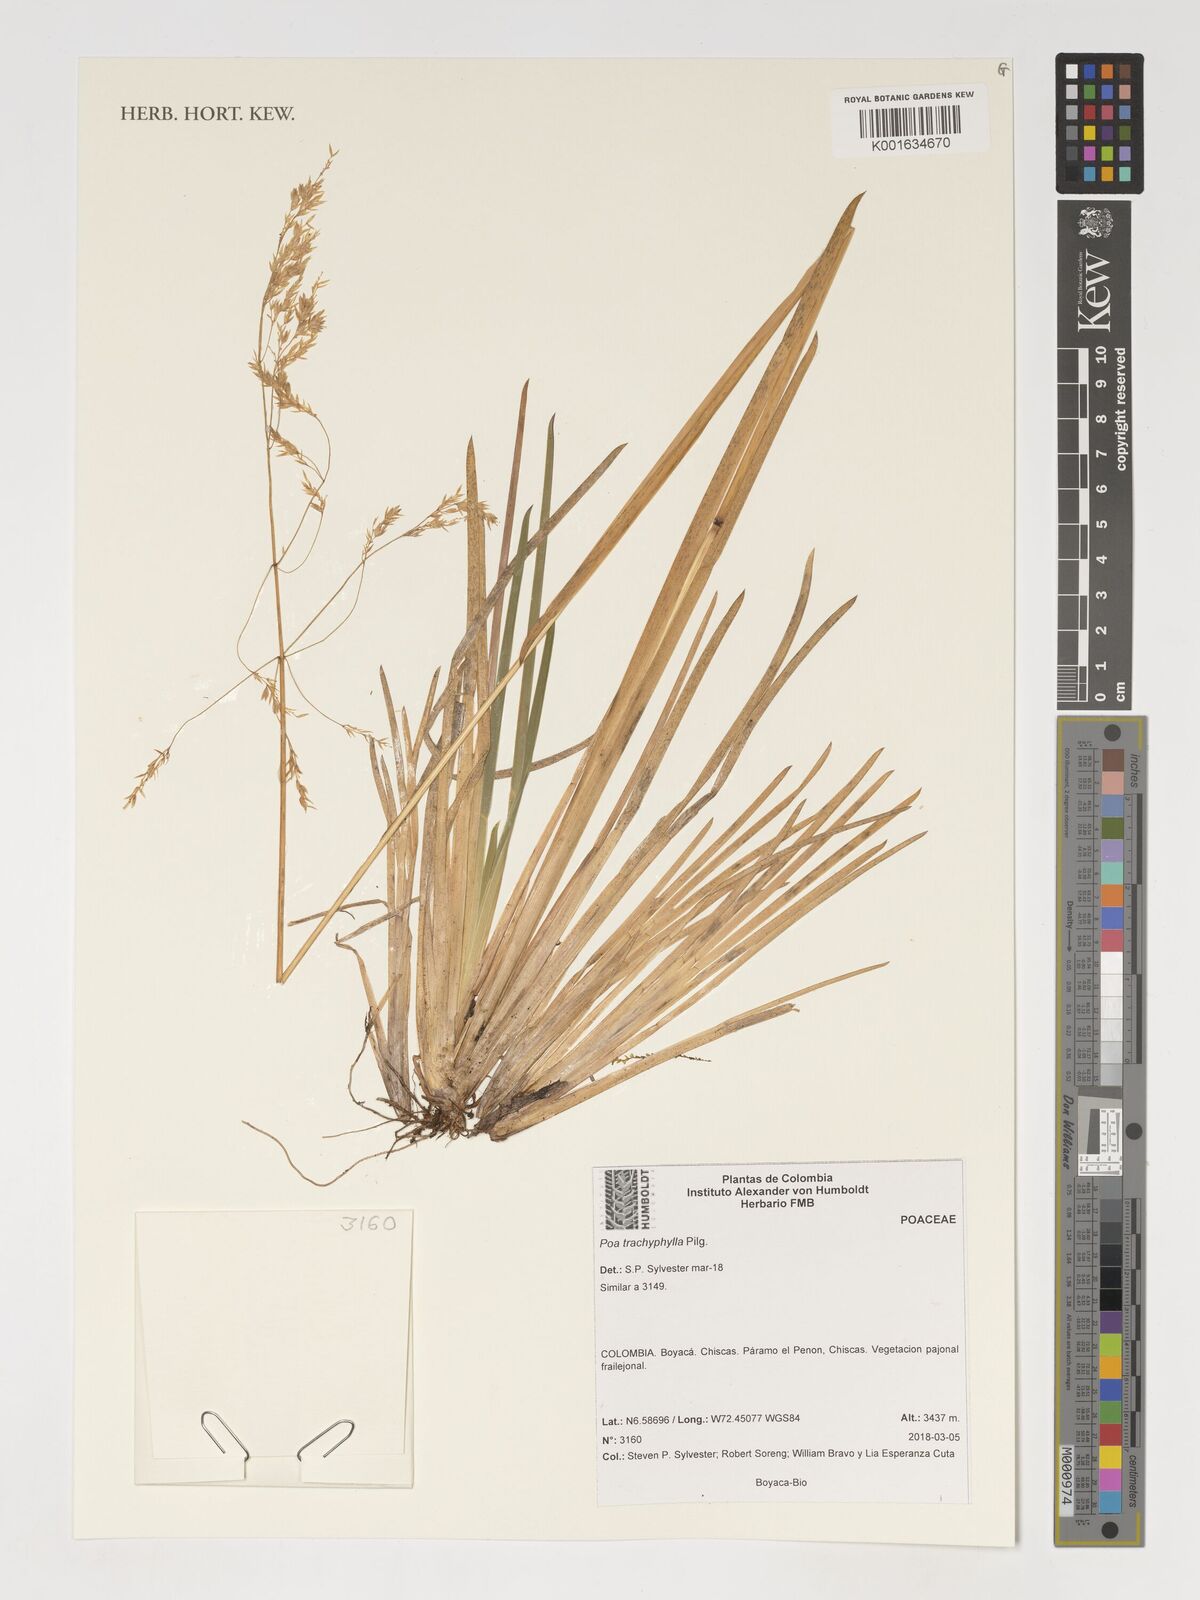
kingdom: Plantae
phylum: Tracheophyta
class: Liliopsida
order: Poales
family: Poaceae
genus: Poa
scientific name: Poa trachyphylla
